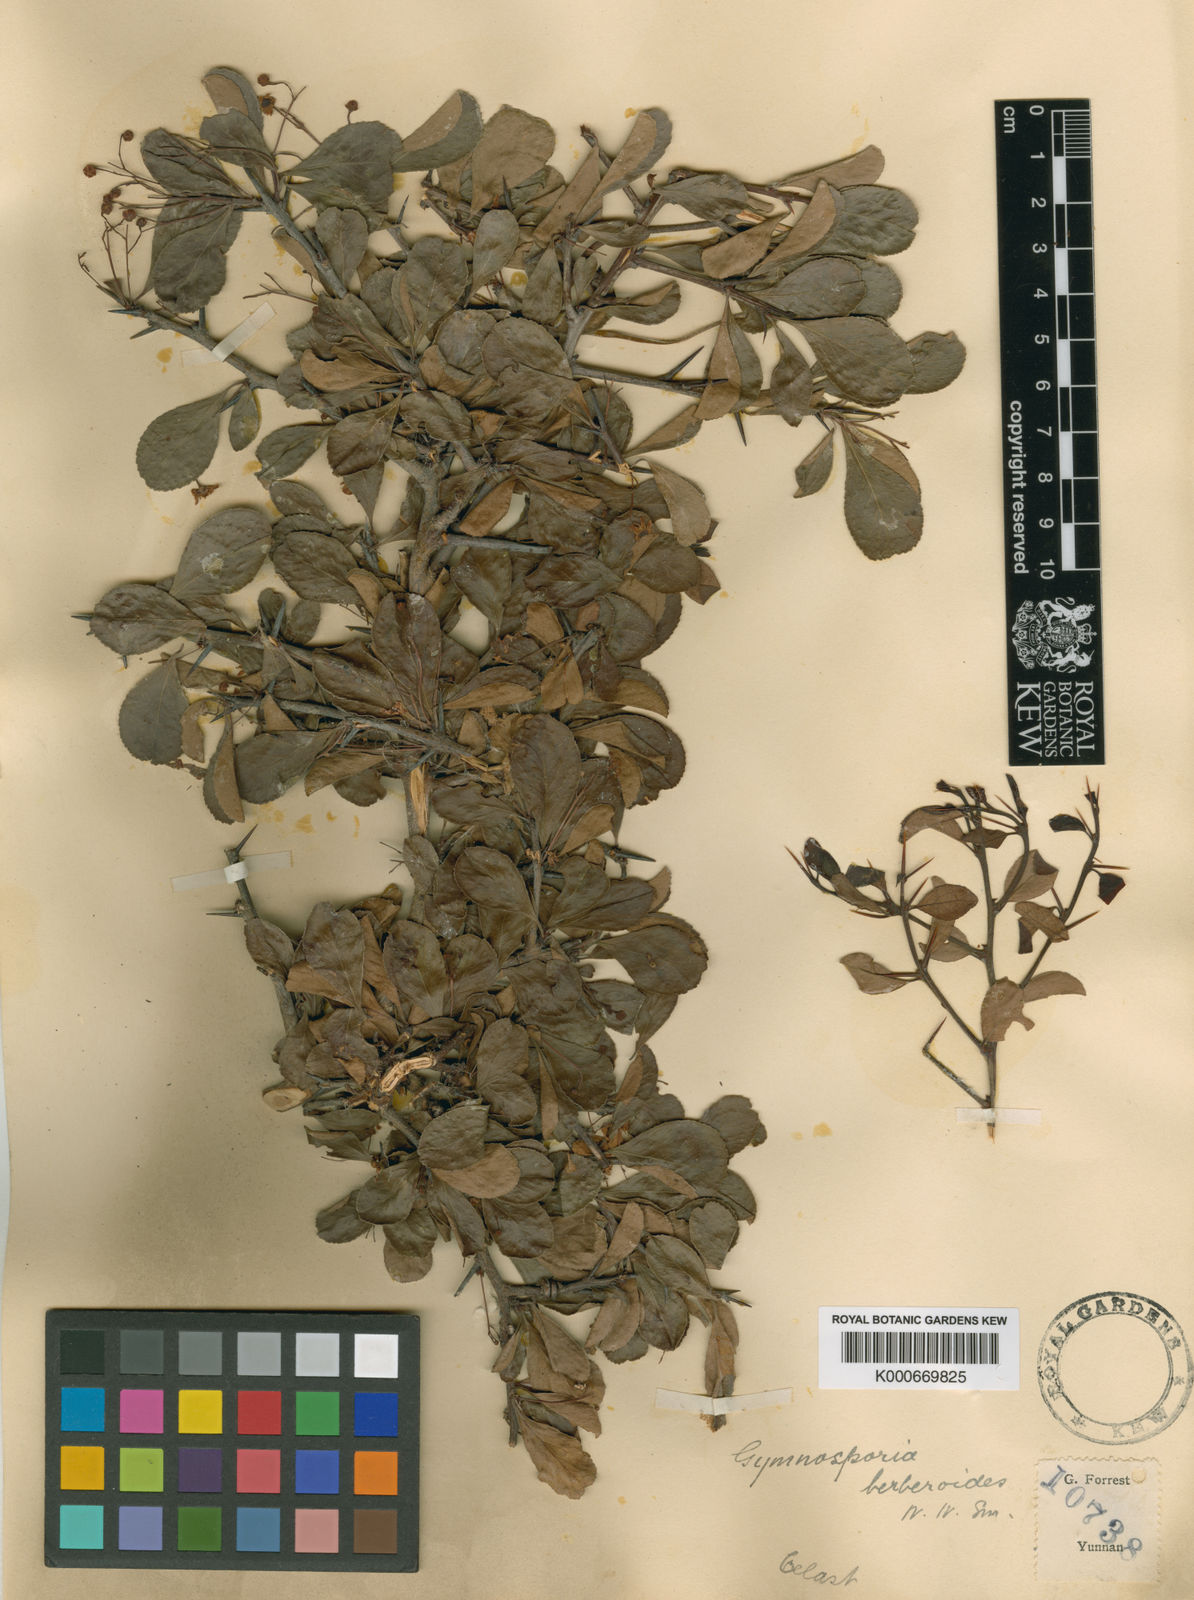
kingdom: Plantae
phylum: Tracheophyta
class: Magnoliopsida
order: Celastrales
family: Celastraceae
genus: Gymnosporia
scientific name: Gymnosporia royleana
